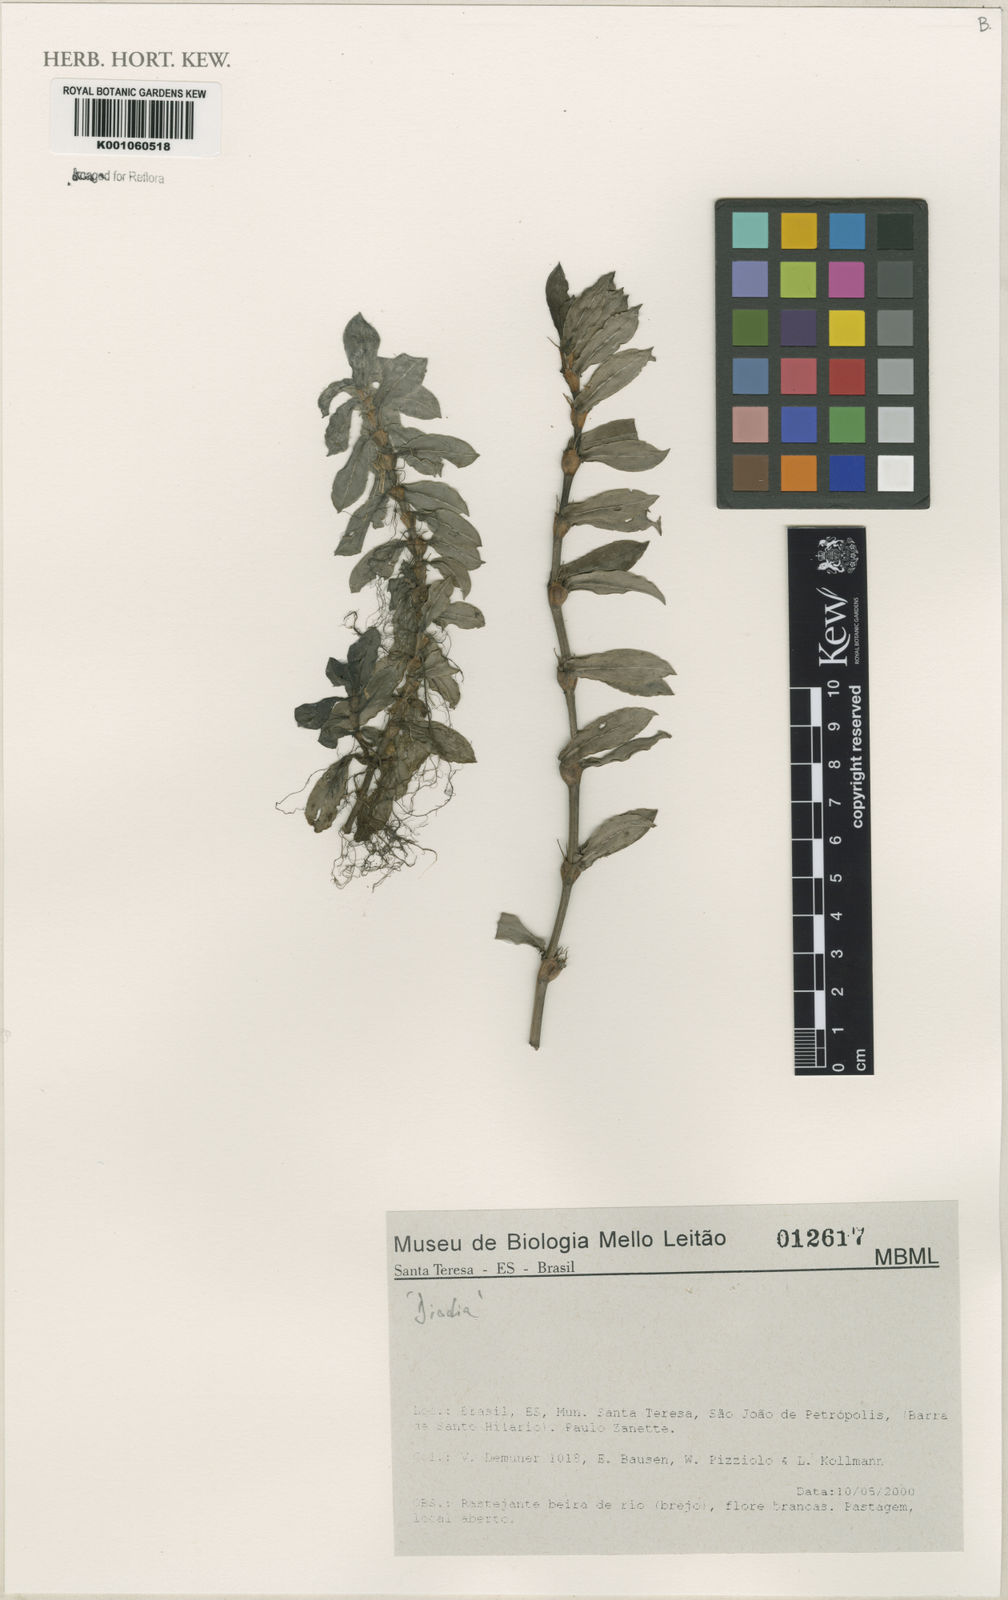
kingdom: Plantae
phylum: Tracheophyta
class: Magnoliopsida
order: Gentianales
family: Rubiaceae
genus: Diodia
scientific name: Diodia
